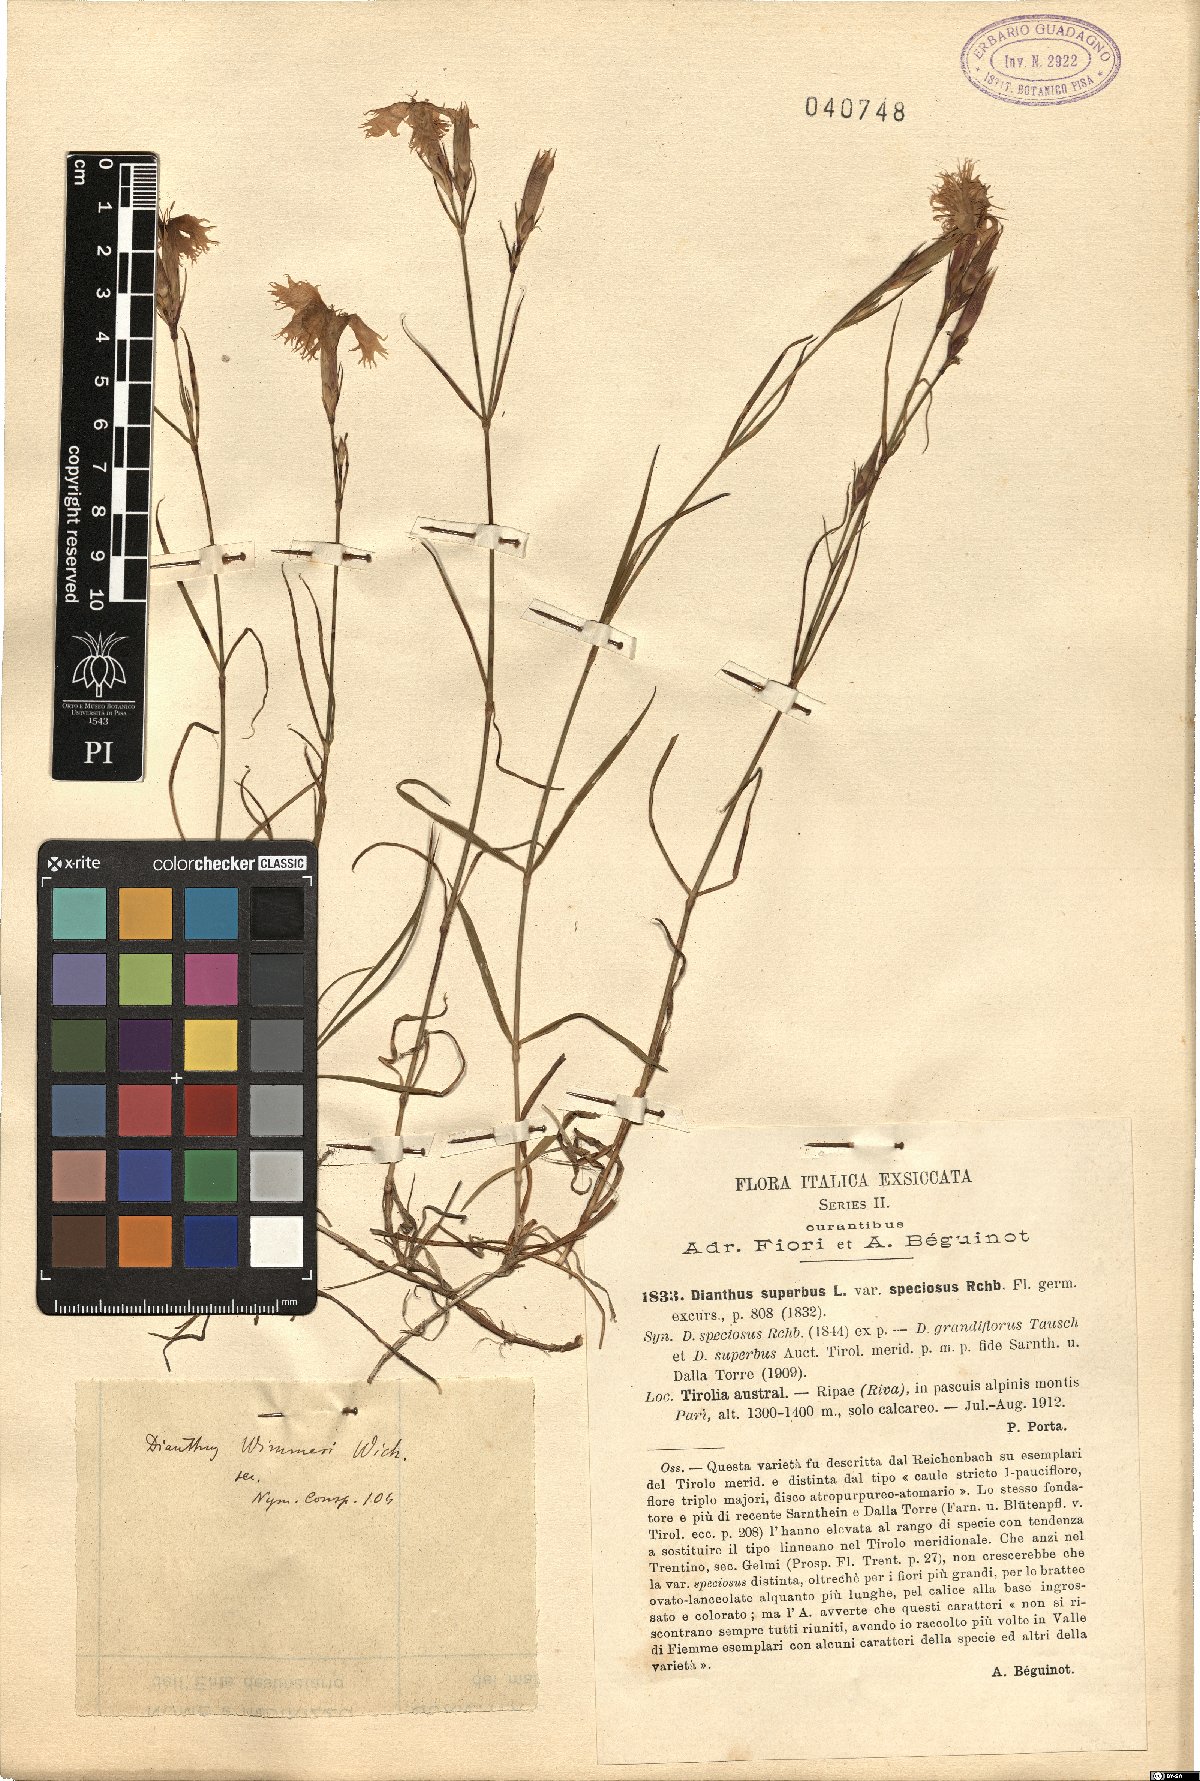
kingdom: Plantae
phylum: Tracheophyta
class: Magnoliopsida
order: Caryophyllales
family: Caryophyllaceae
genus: Dianthus
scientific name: Dianthus superbus
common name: Fringed pink
